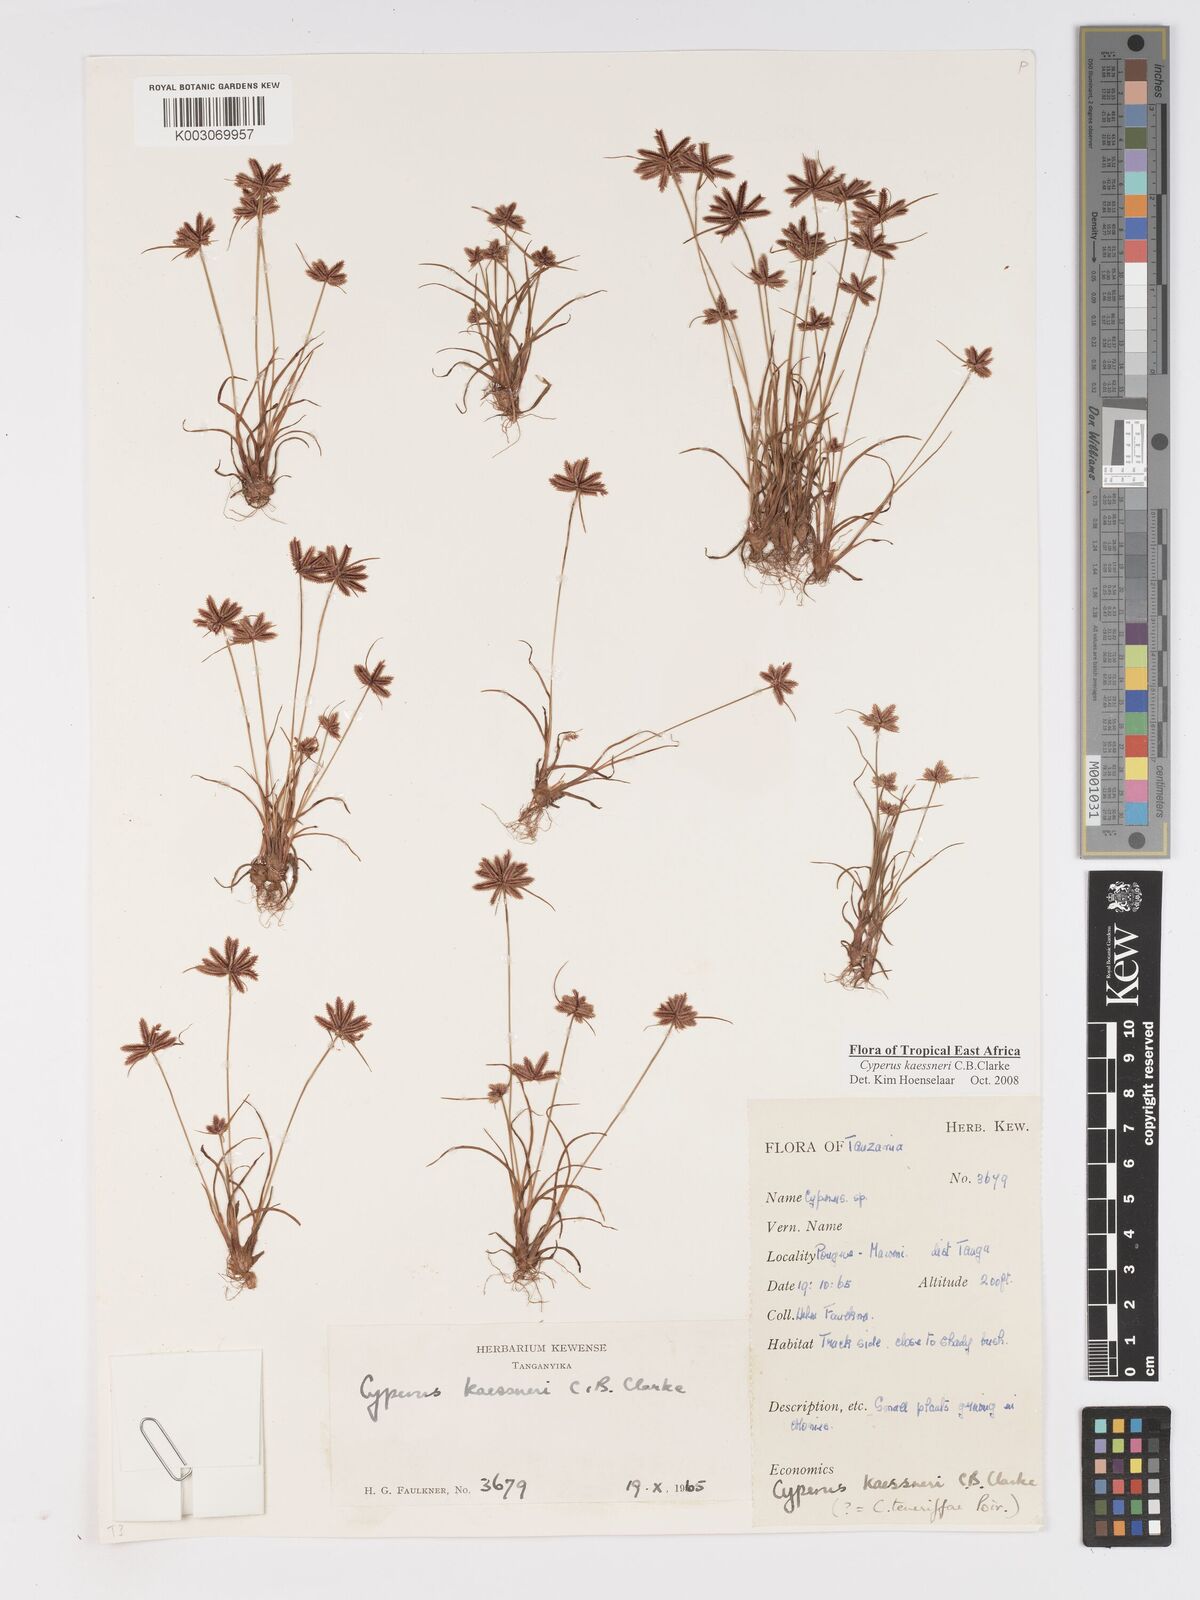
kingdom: Plantae
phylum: Tracheophyta
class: Liliopsida
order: Poales
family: Cyperaceae
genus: Cyperus
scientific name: Cyperus kaessneri
